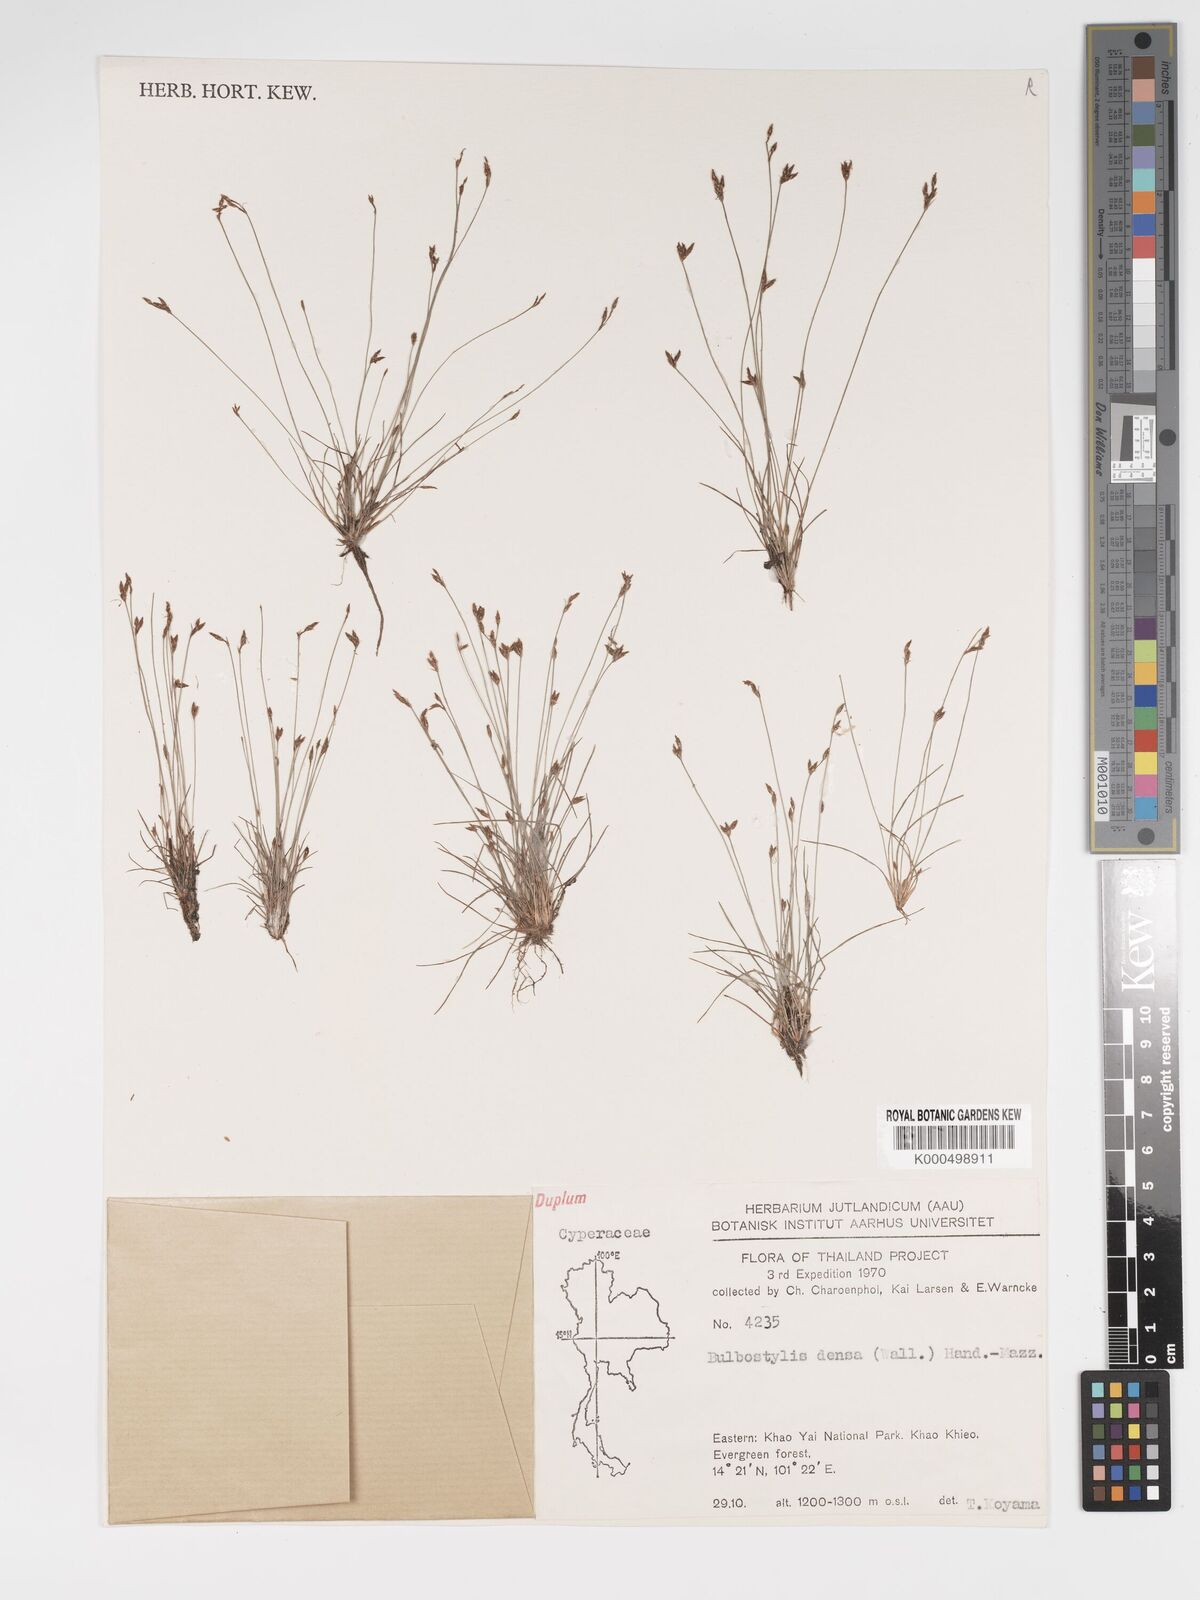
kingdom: Plantae
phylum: Tracheophyta
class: Liliopsida
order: Poales
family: Cyperaceae
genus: Bulbostylis
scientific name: Bulbostylis densa
